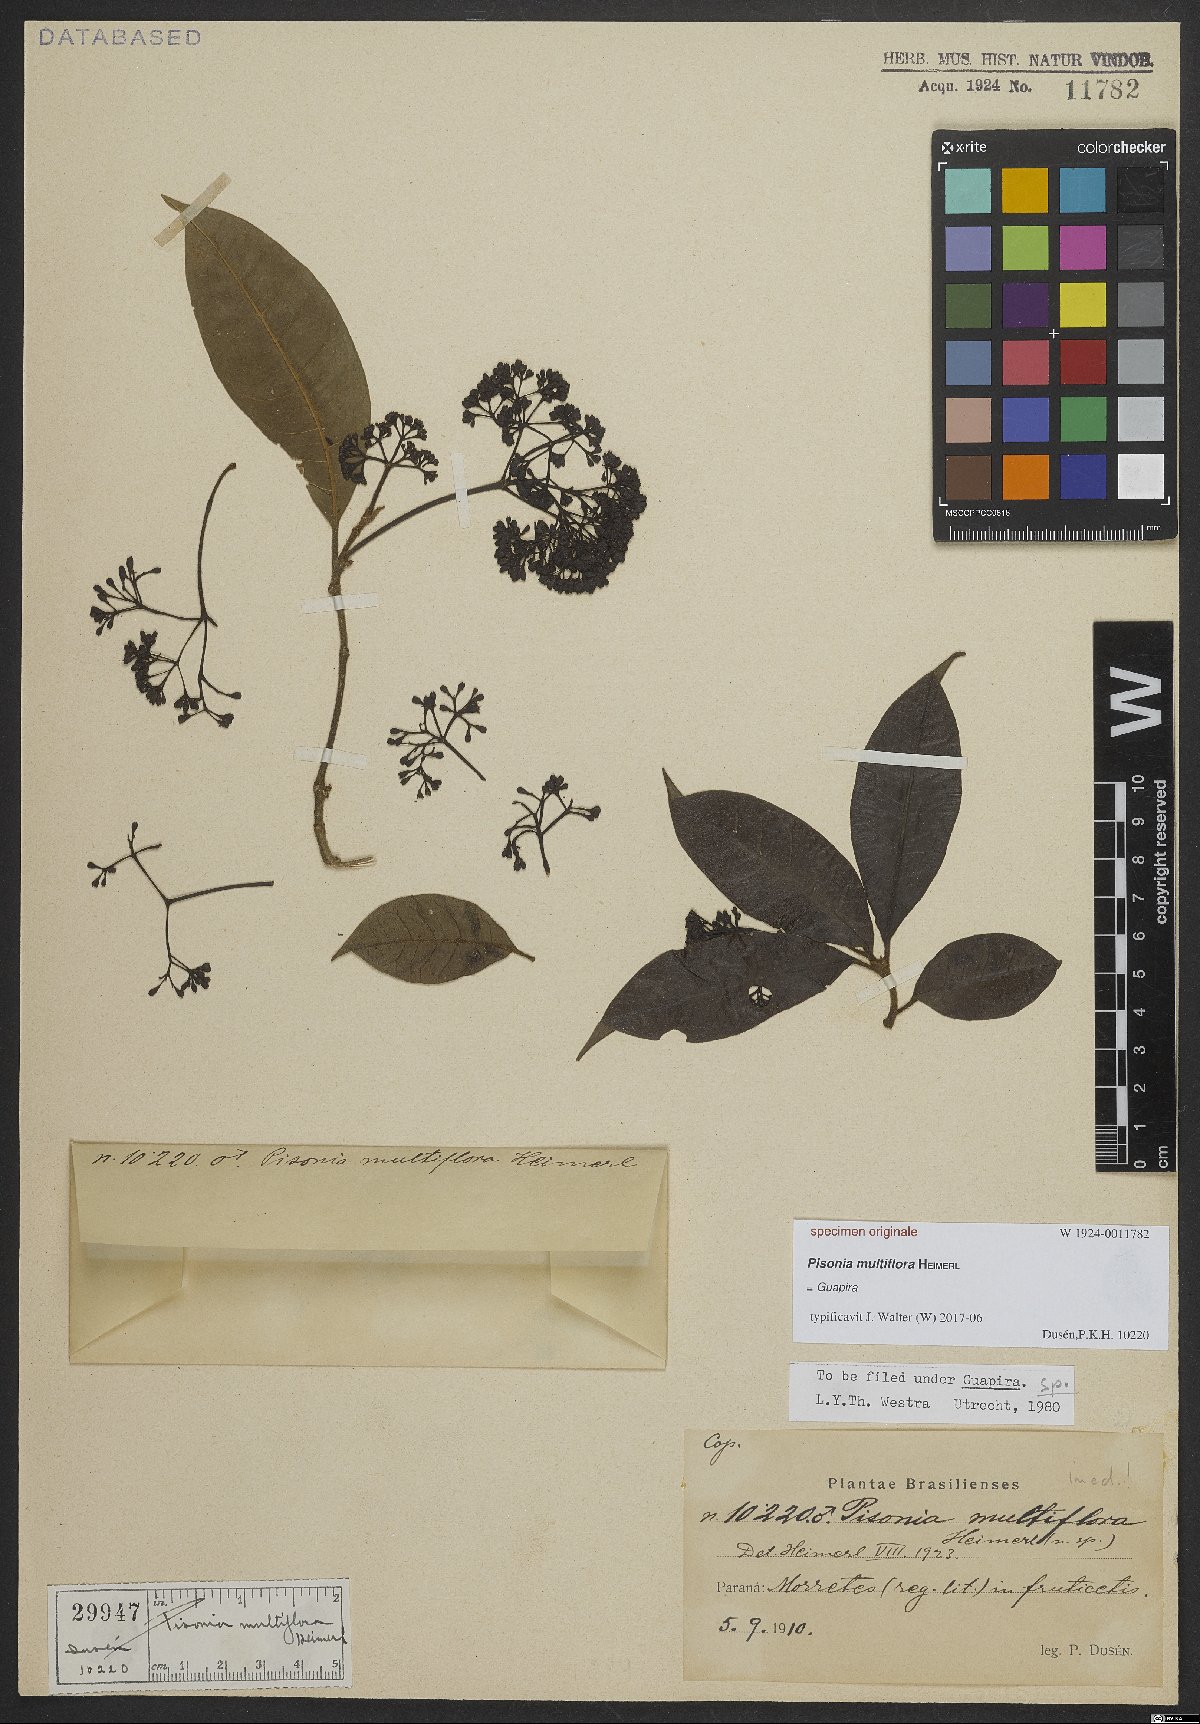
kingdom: Plantae
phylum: Tracheophyta
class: Magnoliopsida
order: Caryophyllales
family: Nyctaginaceae
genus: Guapira
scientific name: Guapira
